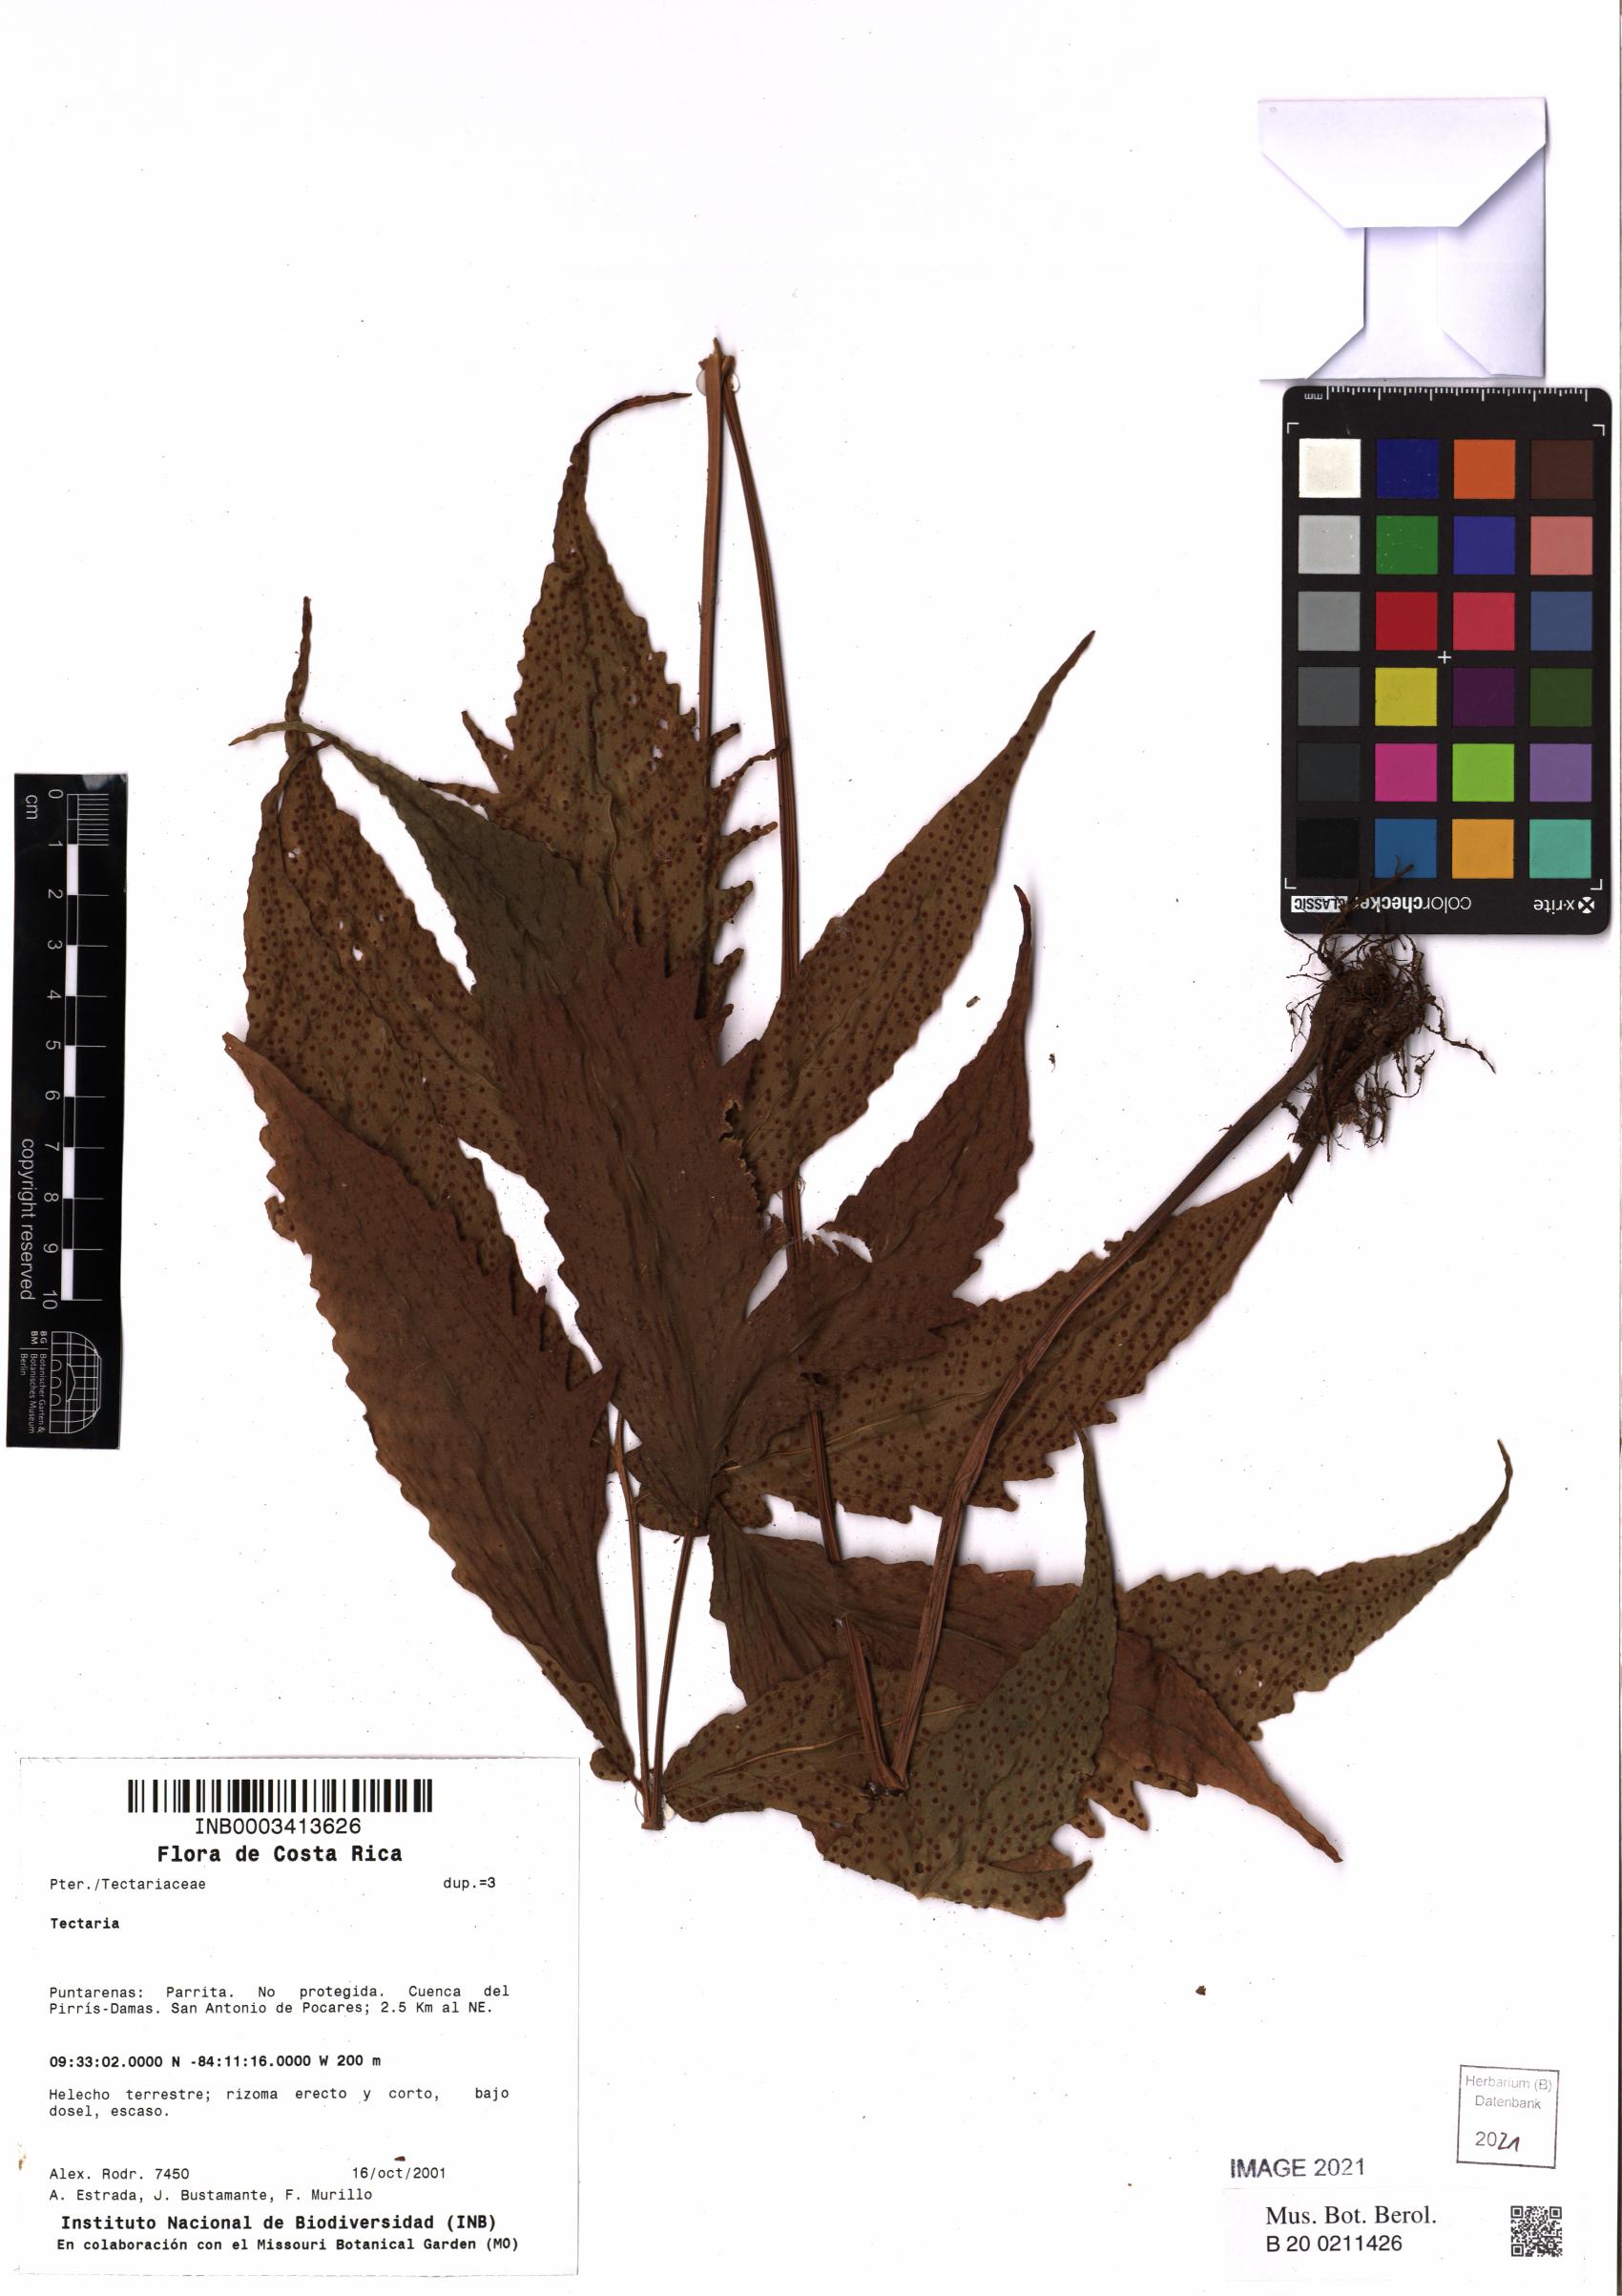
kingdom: Plantae
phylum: Tracheophyta
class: Polypodiopsida
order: Polypodiales
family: Tectariaceae
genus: Tectaria
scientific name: Tectaria incisa
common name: Incised halberd fern
